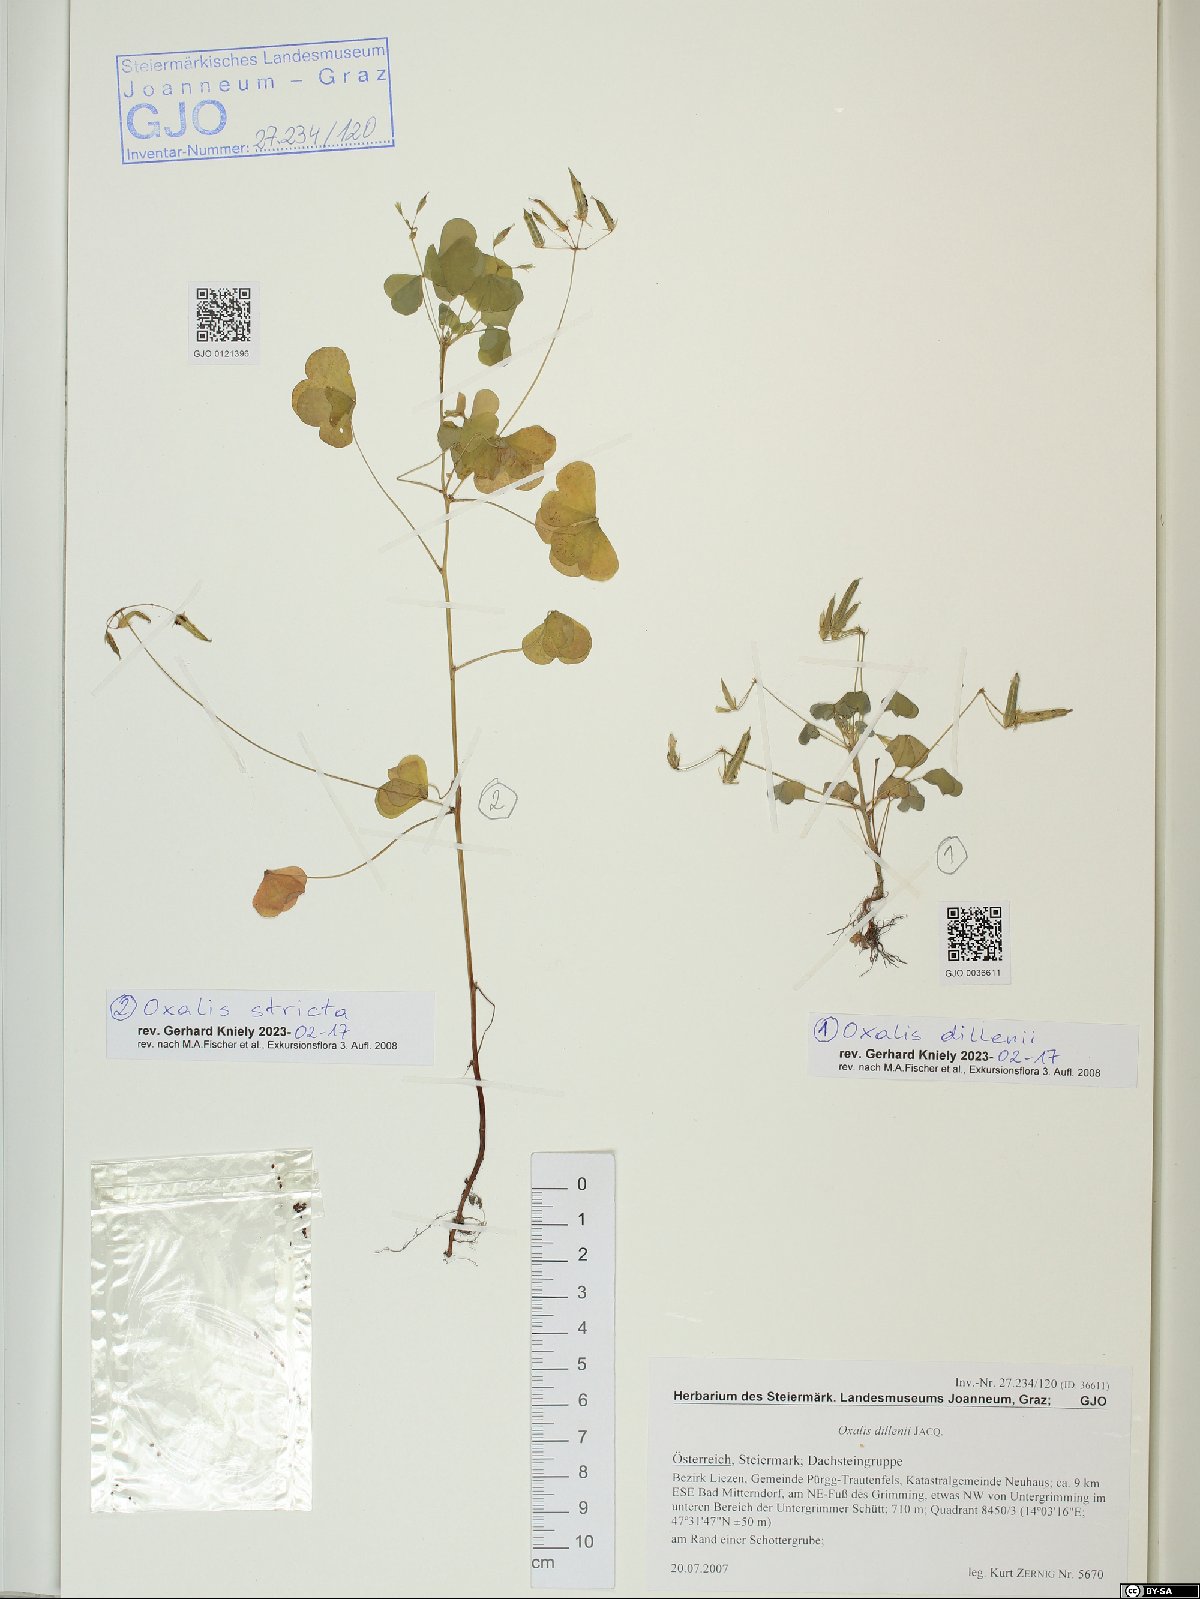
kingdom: Plantae
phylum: Tracheophyta
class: Magnoliopsida
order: Oxalidales
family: Oxalidaceae
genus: Oxalis
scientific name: Oxalis stricta
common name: Upright yellow-sorrel
